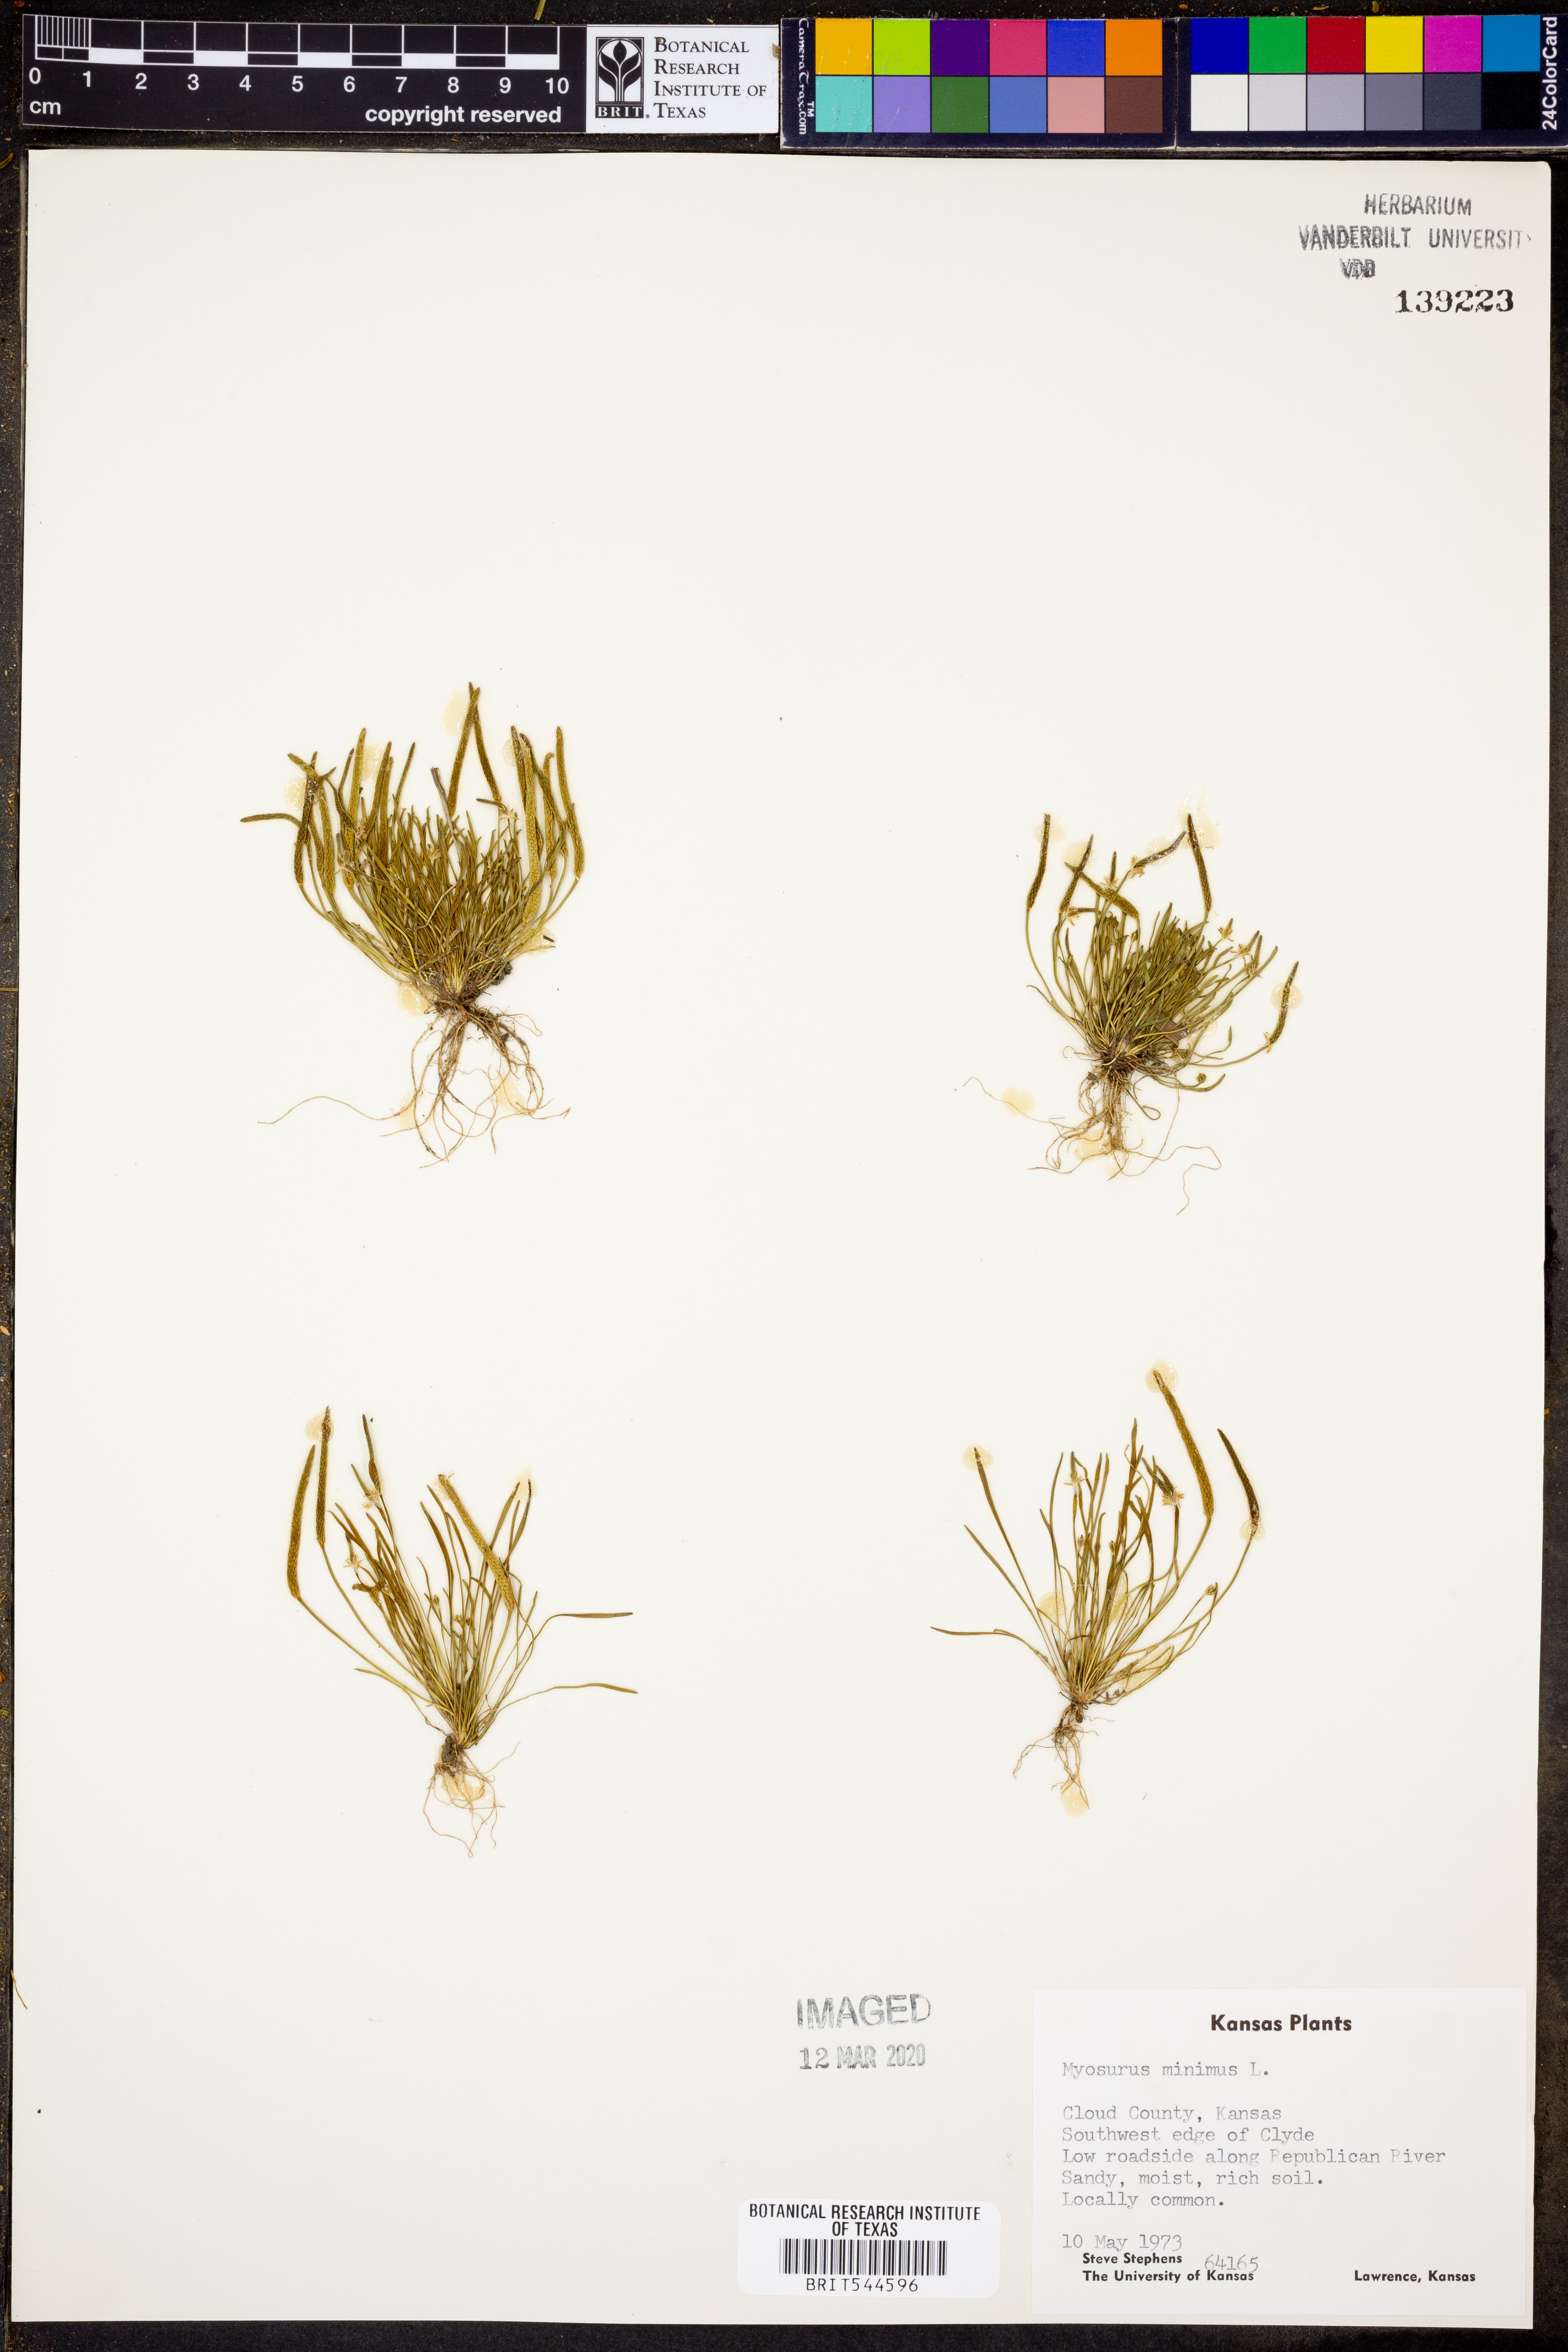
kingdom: Plantae
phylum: Tracheophyta
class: Magnoliopsida
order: Ranunculales
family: Ranunculaceae
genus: Myosurus
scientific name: Myosurus minimus
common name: Mousetail
